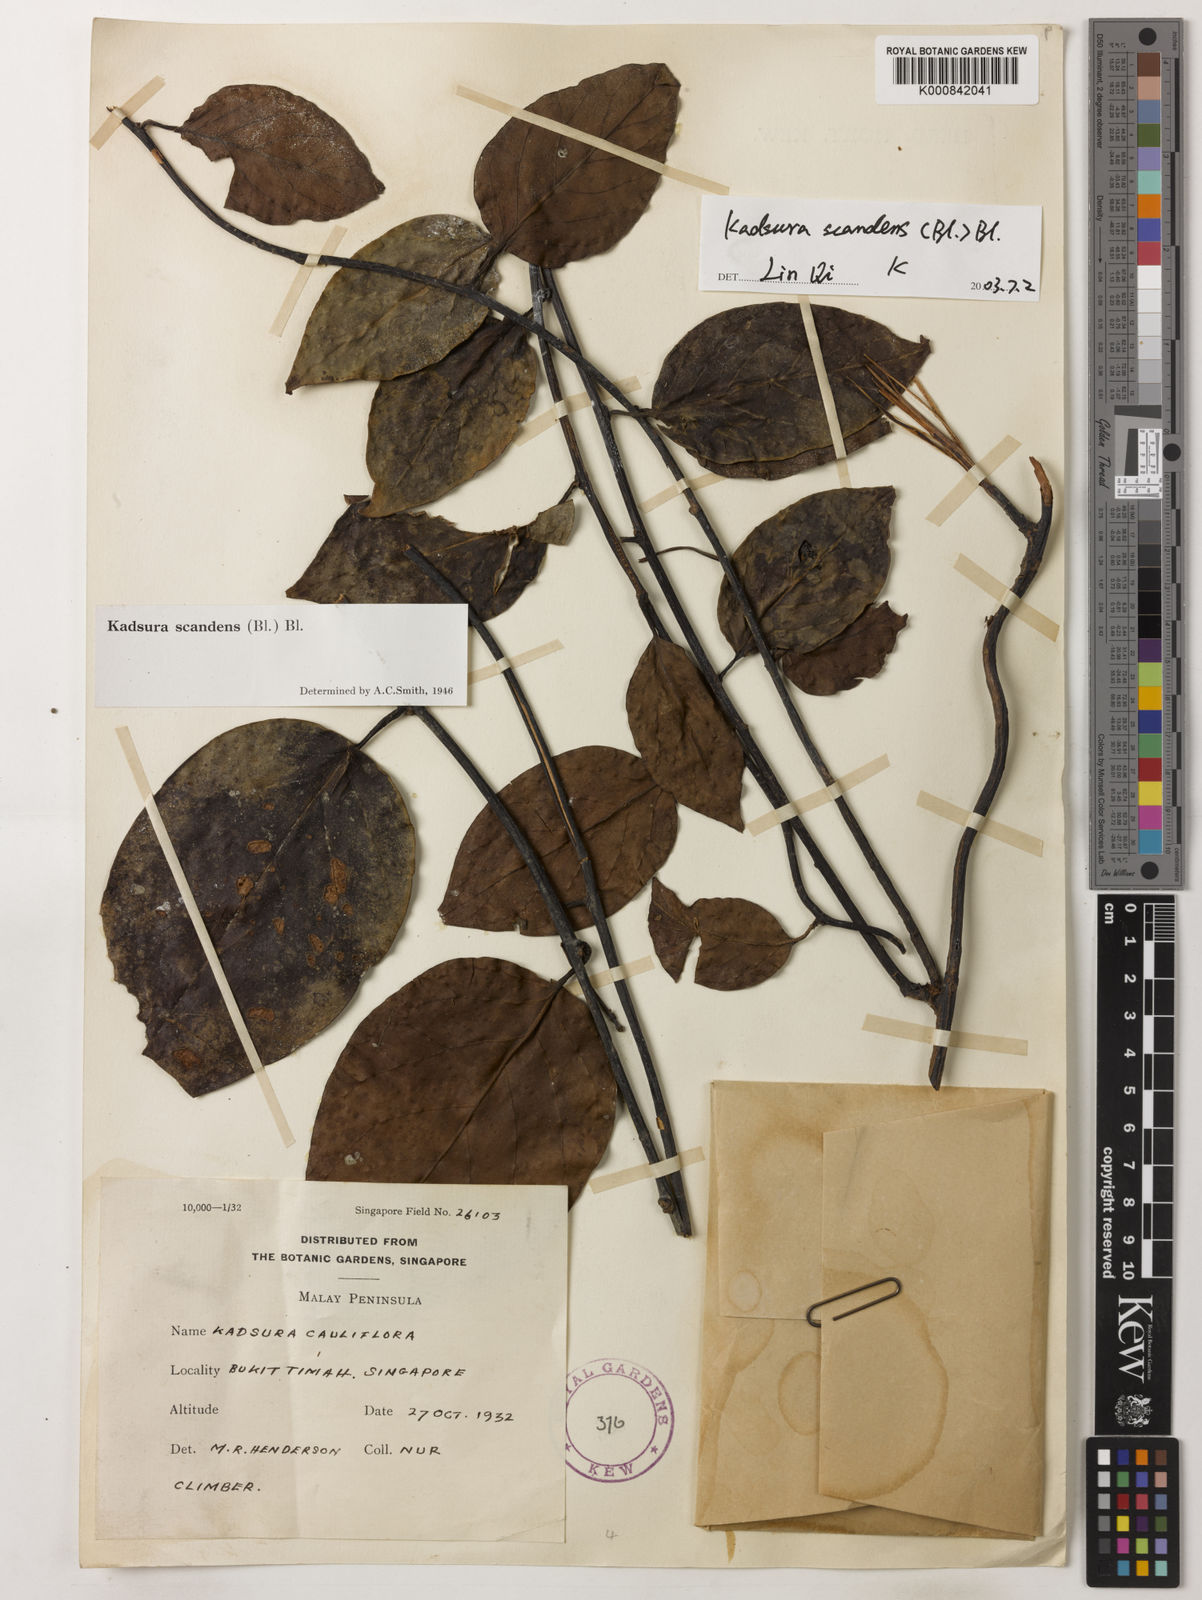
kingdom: Plantae
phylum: Tracheophyta
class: Magnoliopsida
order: Austrobaileyales
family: Schisandraceae
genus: Kadsura
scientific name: Kadsura scandens
